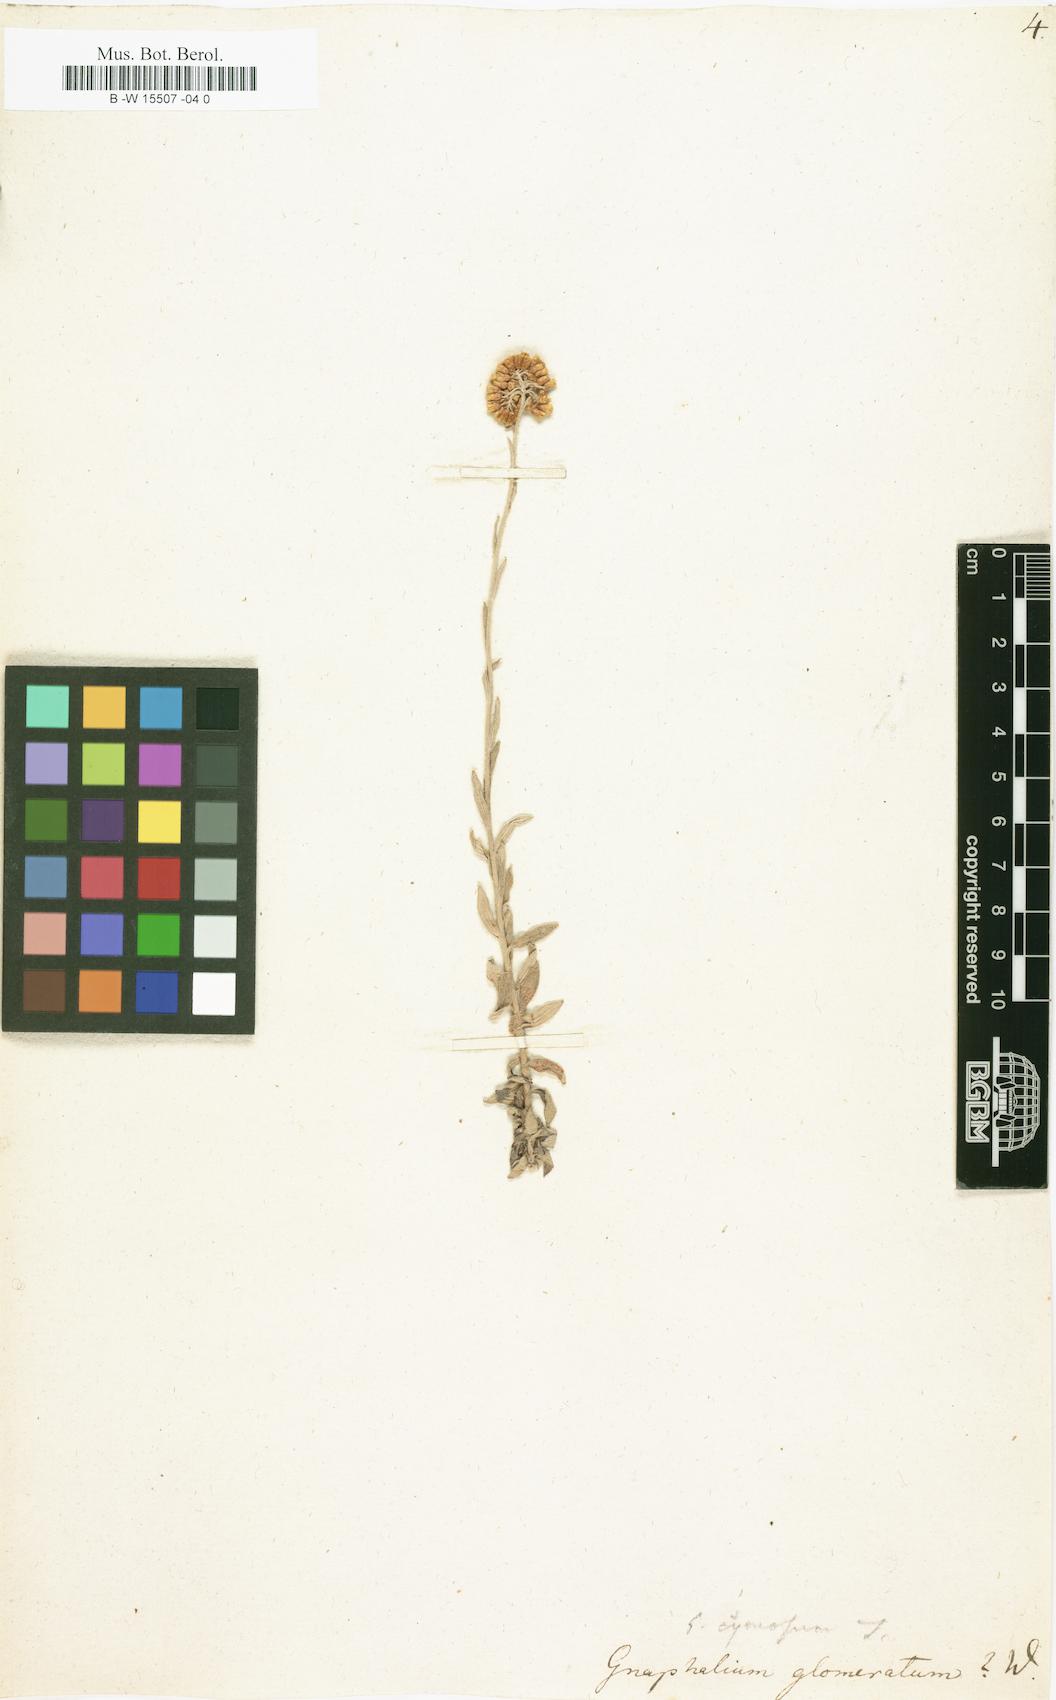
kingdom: Plantae
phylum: Tracheophyta
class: Magnoliopsida
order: Asterales
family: Asteraceae
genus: Gnaphalium
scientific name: Gnaphalium glomeratum
